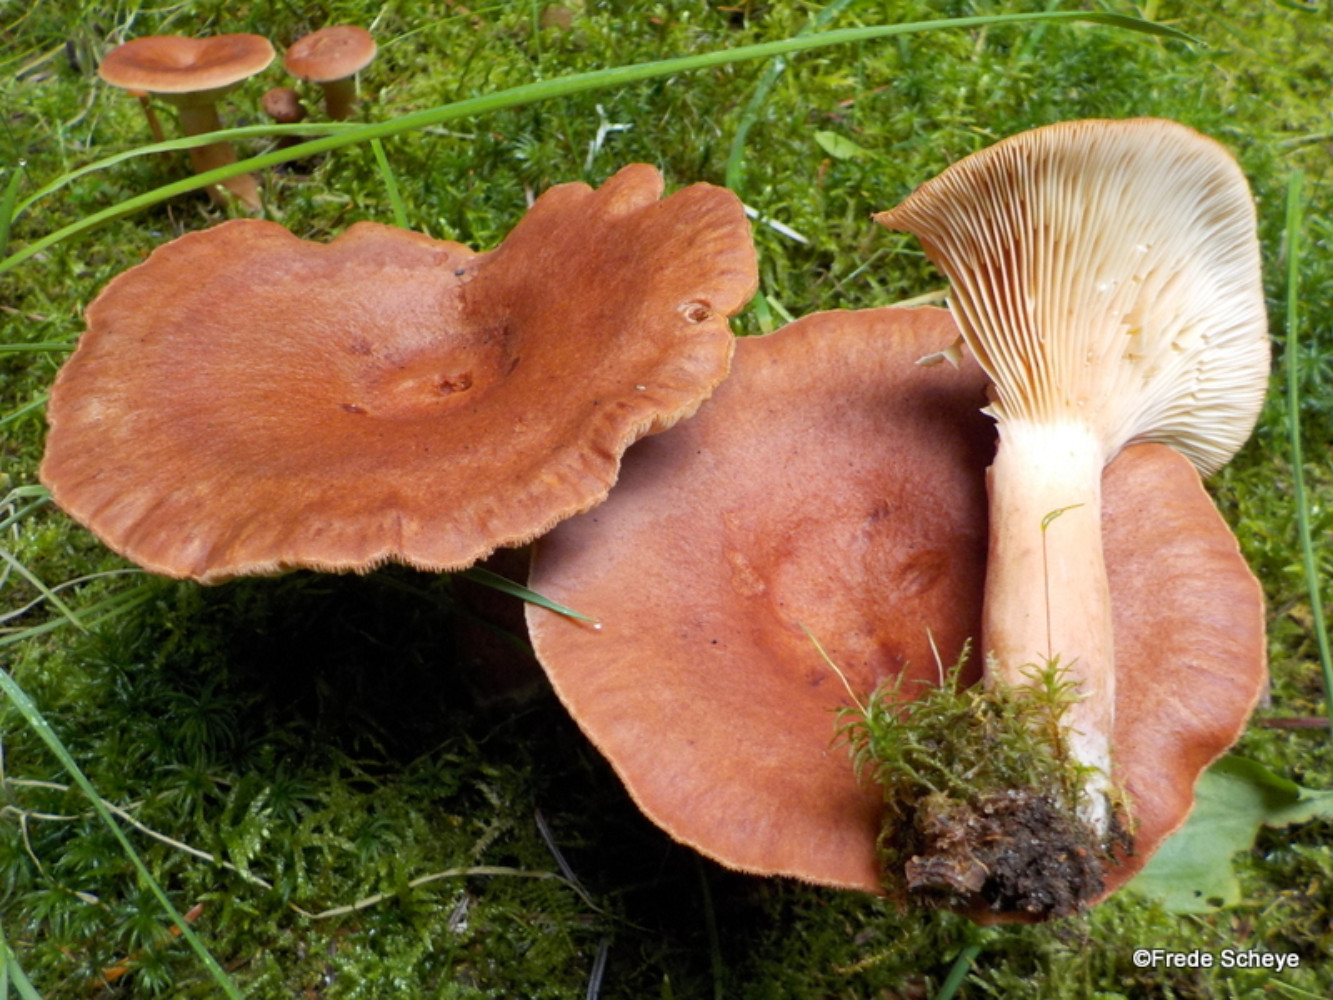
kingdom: Fungi
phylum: Basidiomycota
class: Agaricomycetes
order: Russulales
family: Russulaceae
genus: Lactarius
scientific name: Lactarius rufus
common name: rødbrun mælkehat
